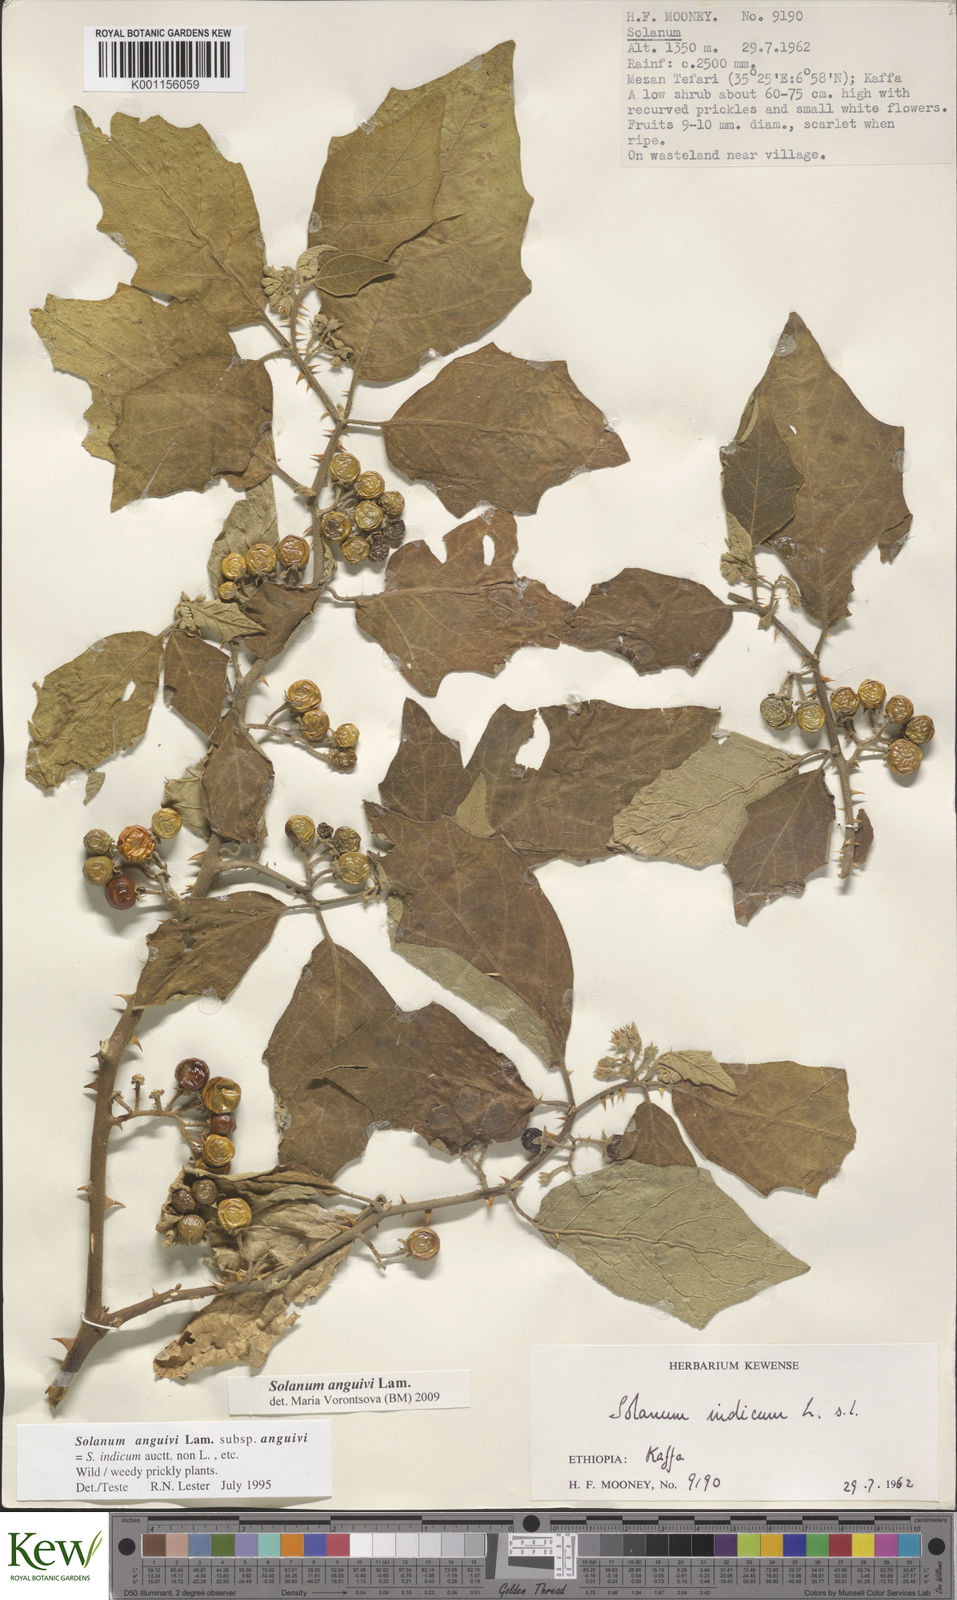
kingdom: Plantae
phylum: Tracheophyta
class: Magnoliopsida
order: Solanales
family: Solanaceae
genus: Solanum
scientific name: Solanum anguivi
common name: Forest bitterberry
